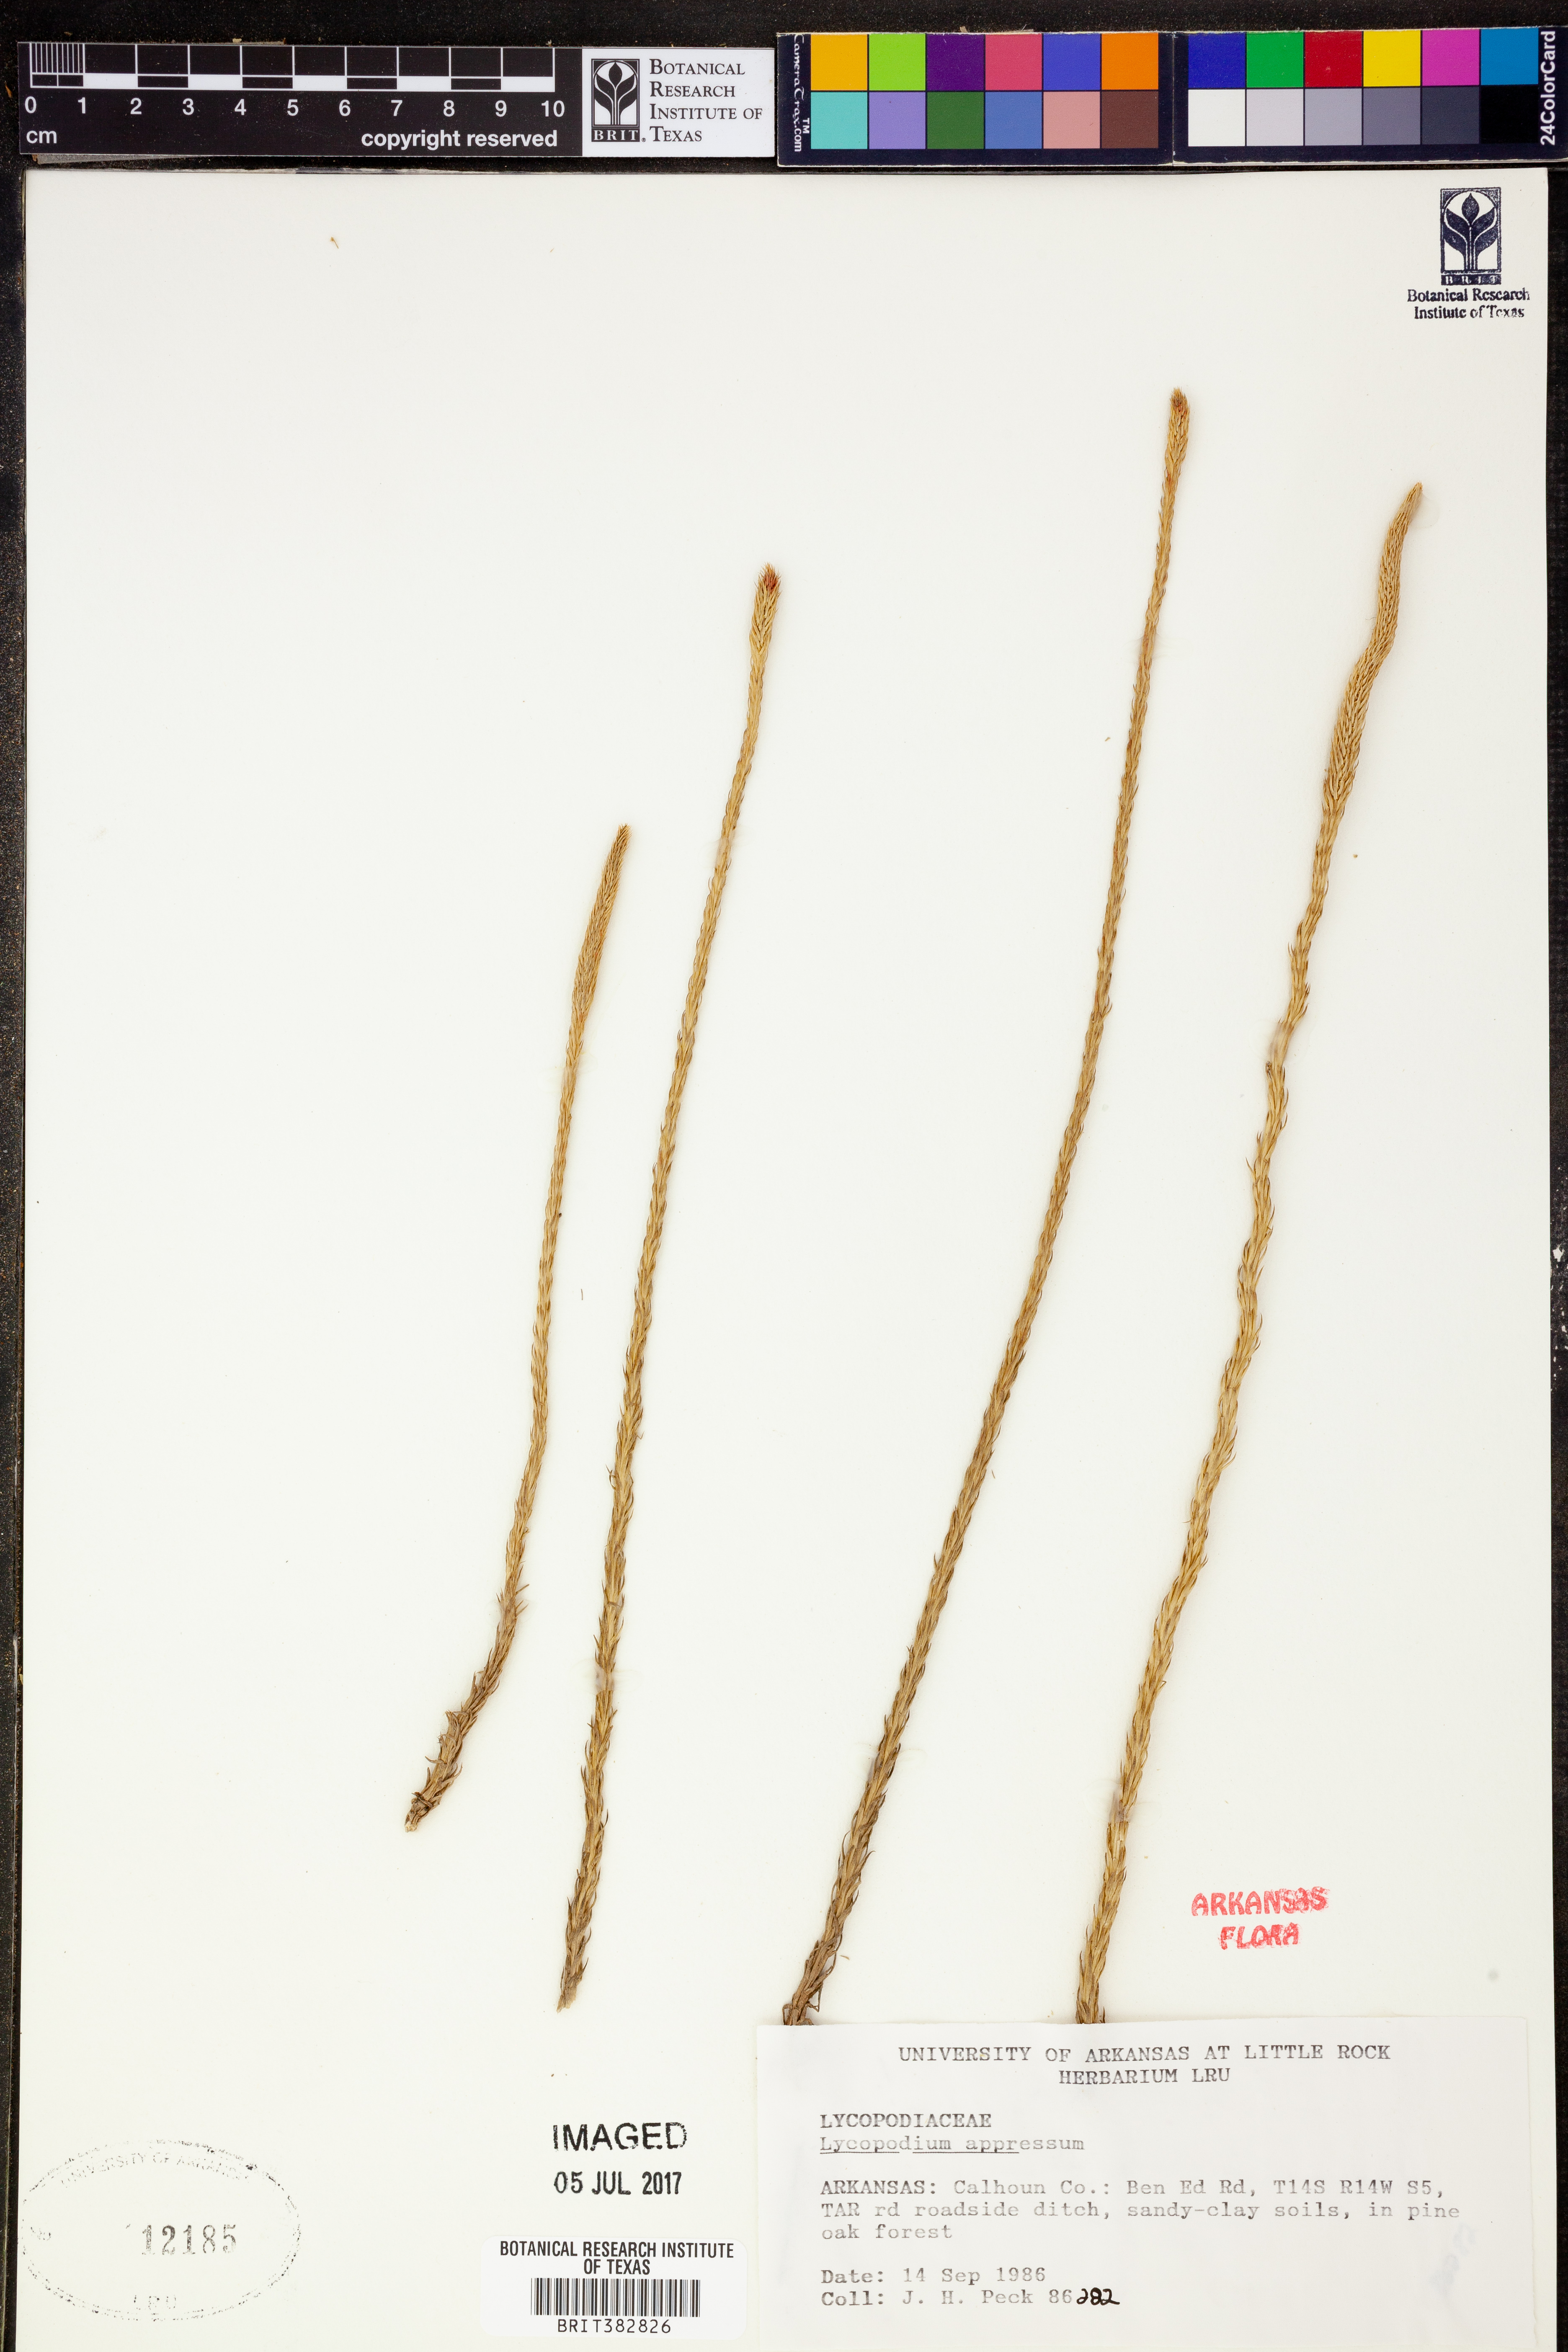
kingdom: Plantae
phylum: Tracheophyta
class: Lycopodiopsida
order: Lycopodiales
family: Lycopodiaceae
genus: Lycopodiella
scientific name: Lycopodiella appressa
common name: Appressed bog clubmoss
